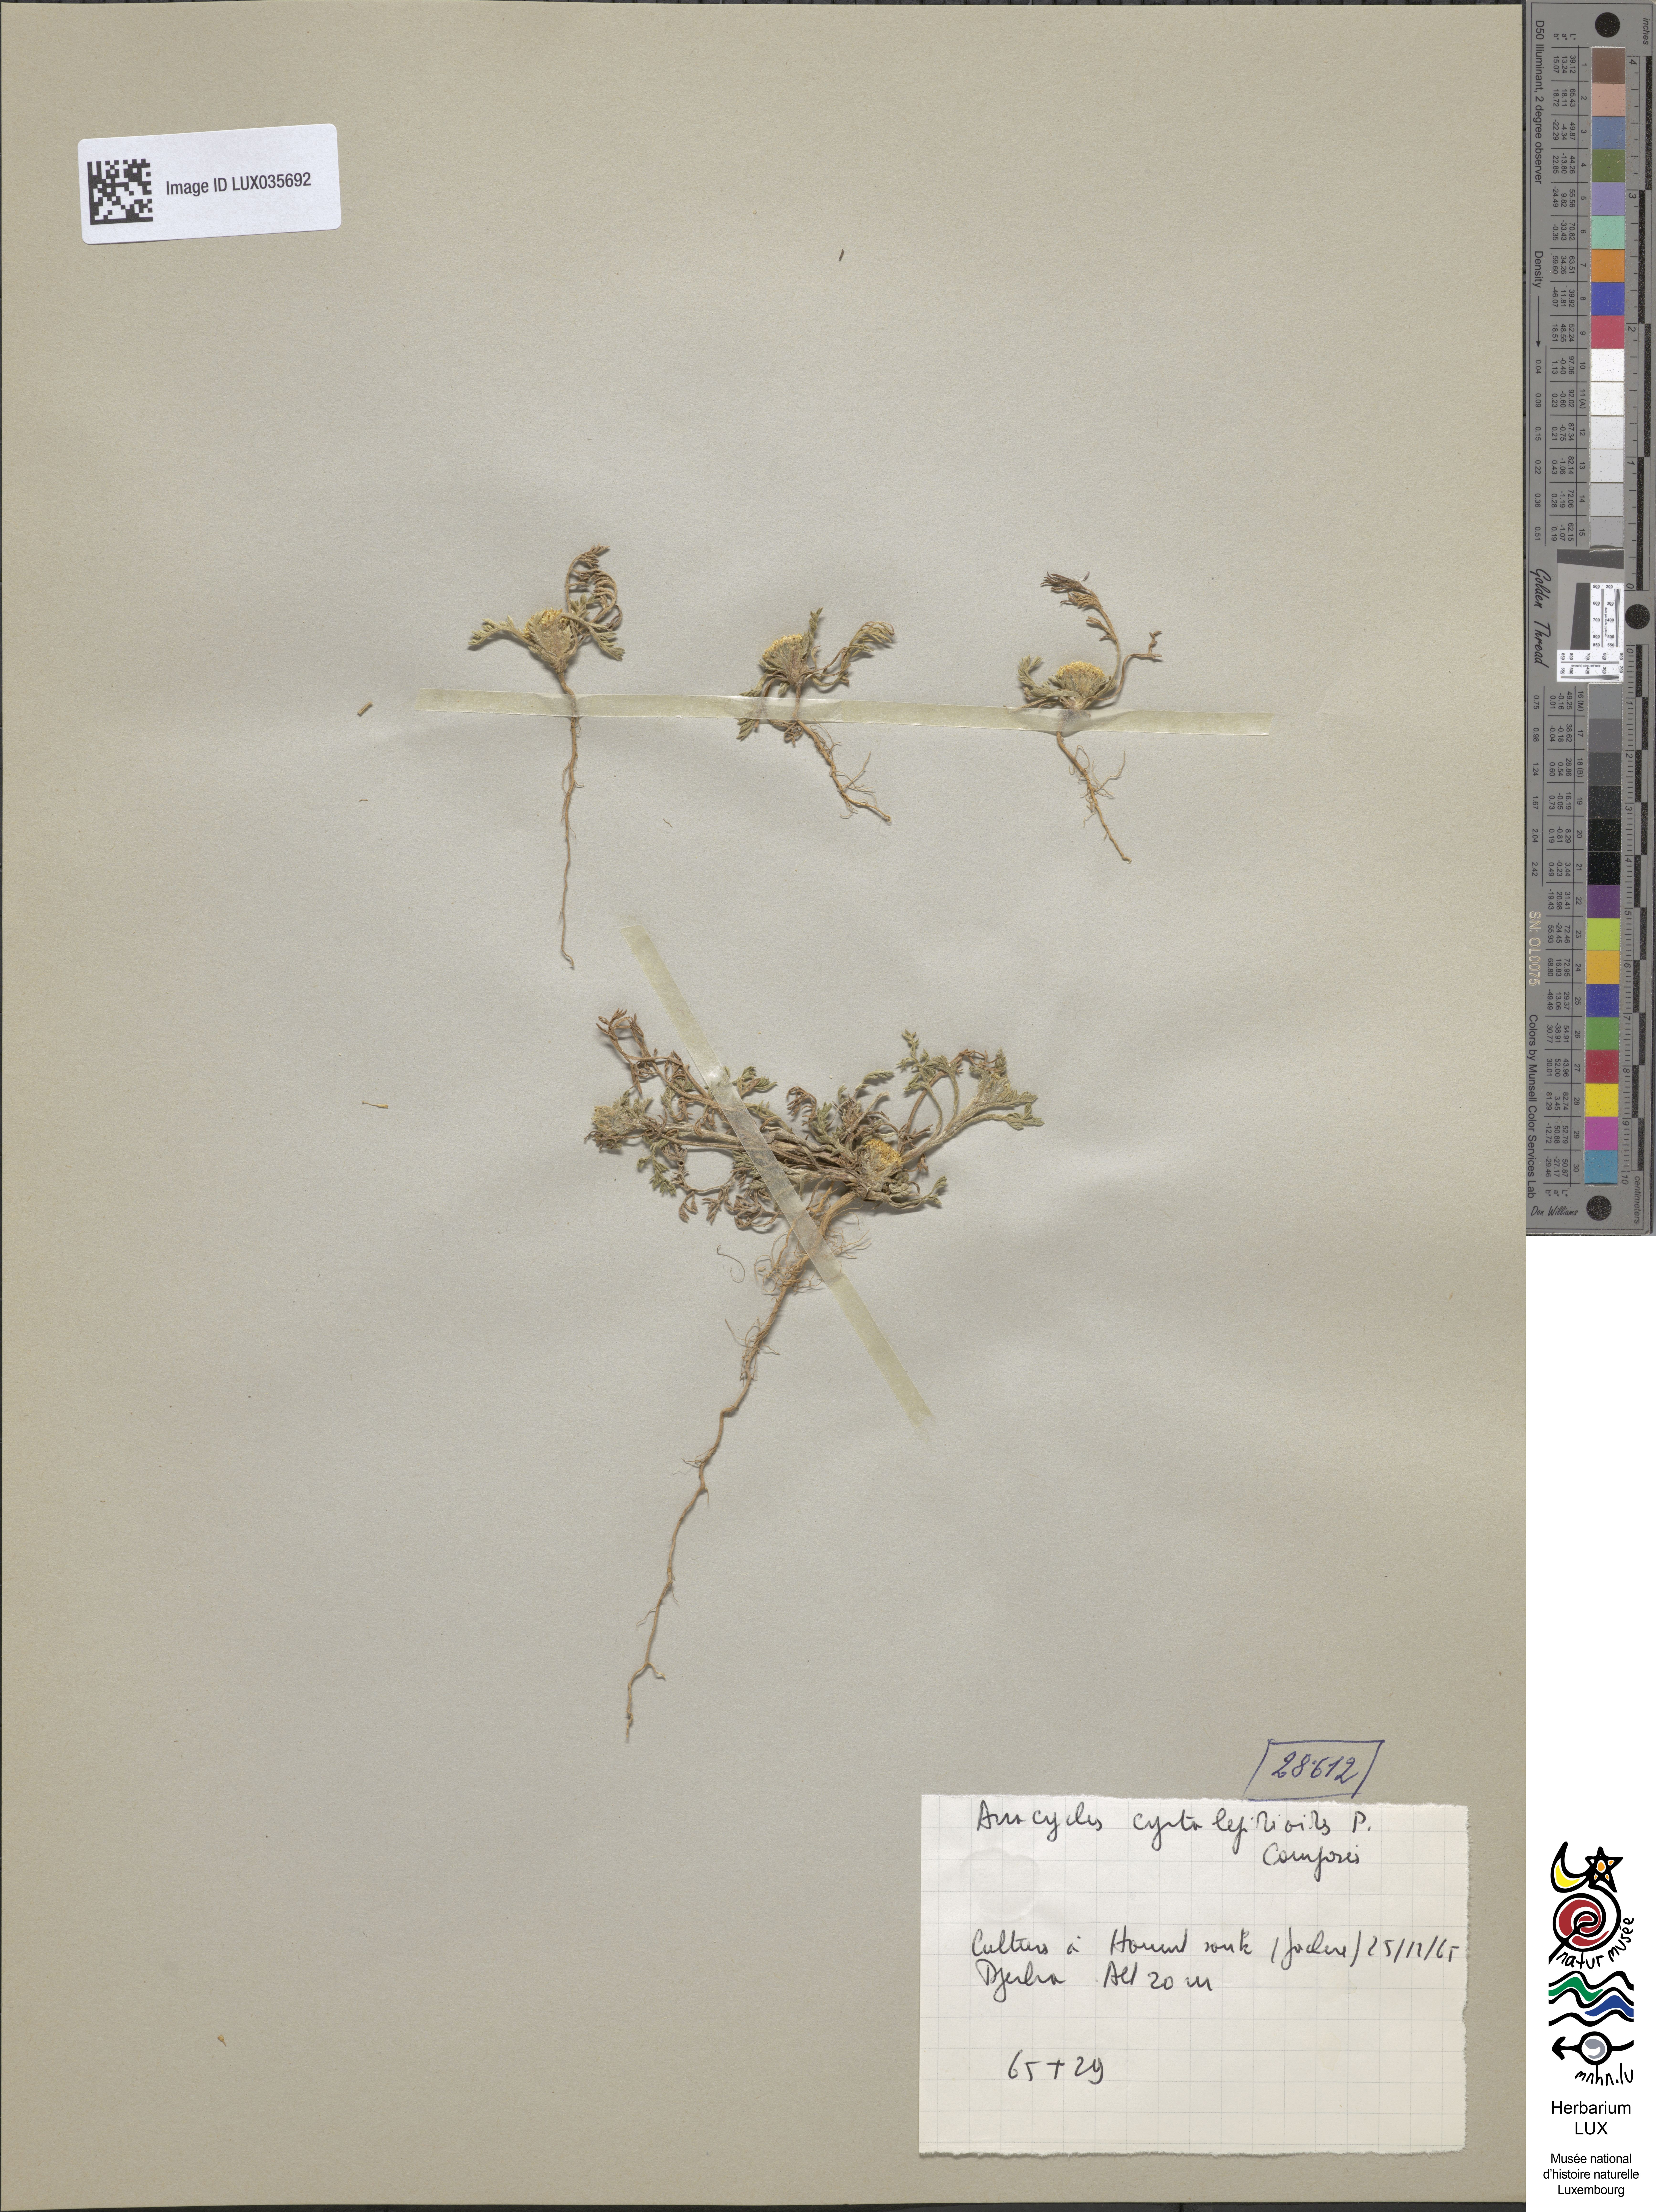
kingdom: Plantae
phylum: Tracheophyta
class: Magnoliopsida
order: Asterales
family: Asteraceae
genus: Anacyclus
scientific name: Anacyclus
